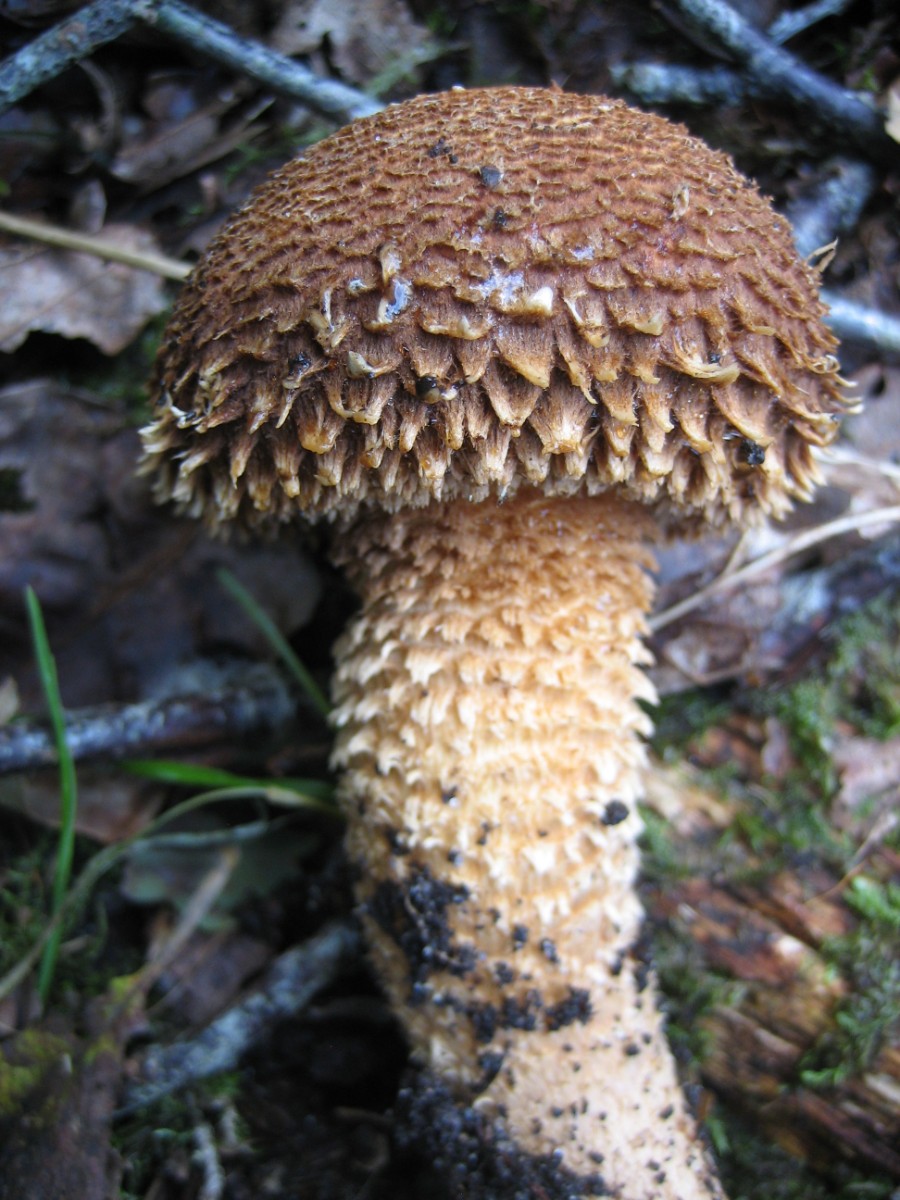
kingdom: Fungi
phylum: Basidiomycota
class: Agaricomycetes
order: Agaricales
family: Strophariaceae
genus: Pholiota
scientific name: Pholiota squarrosa
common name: krumskællet skælhat
